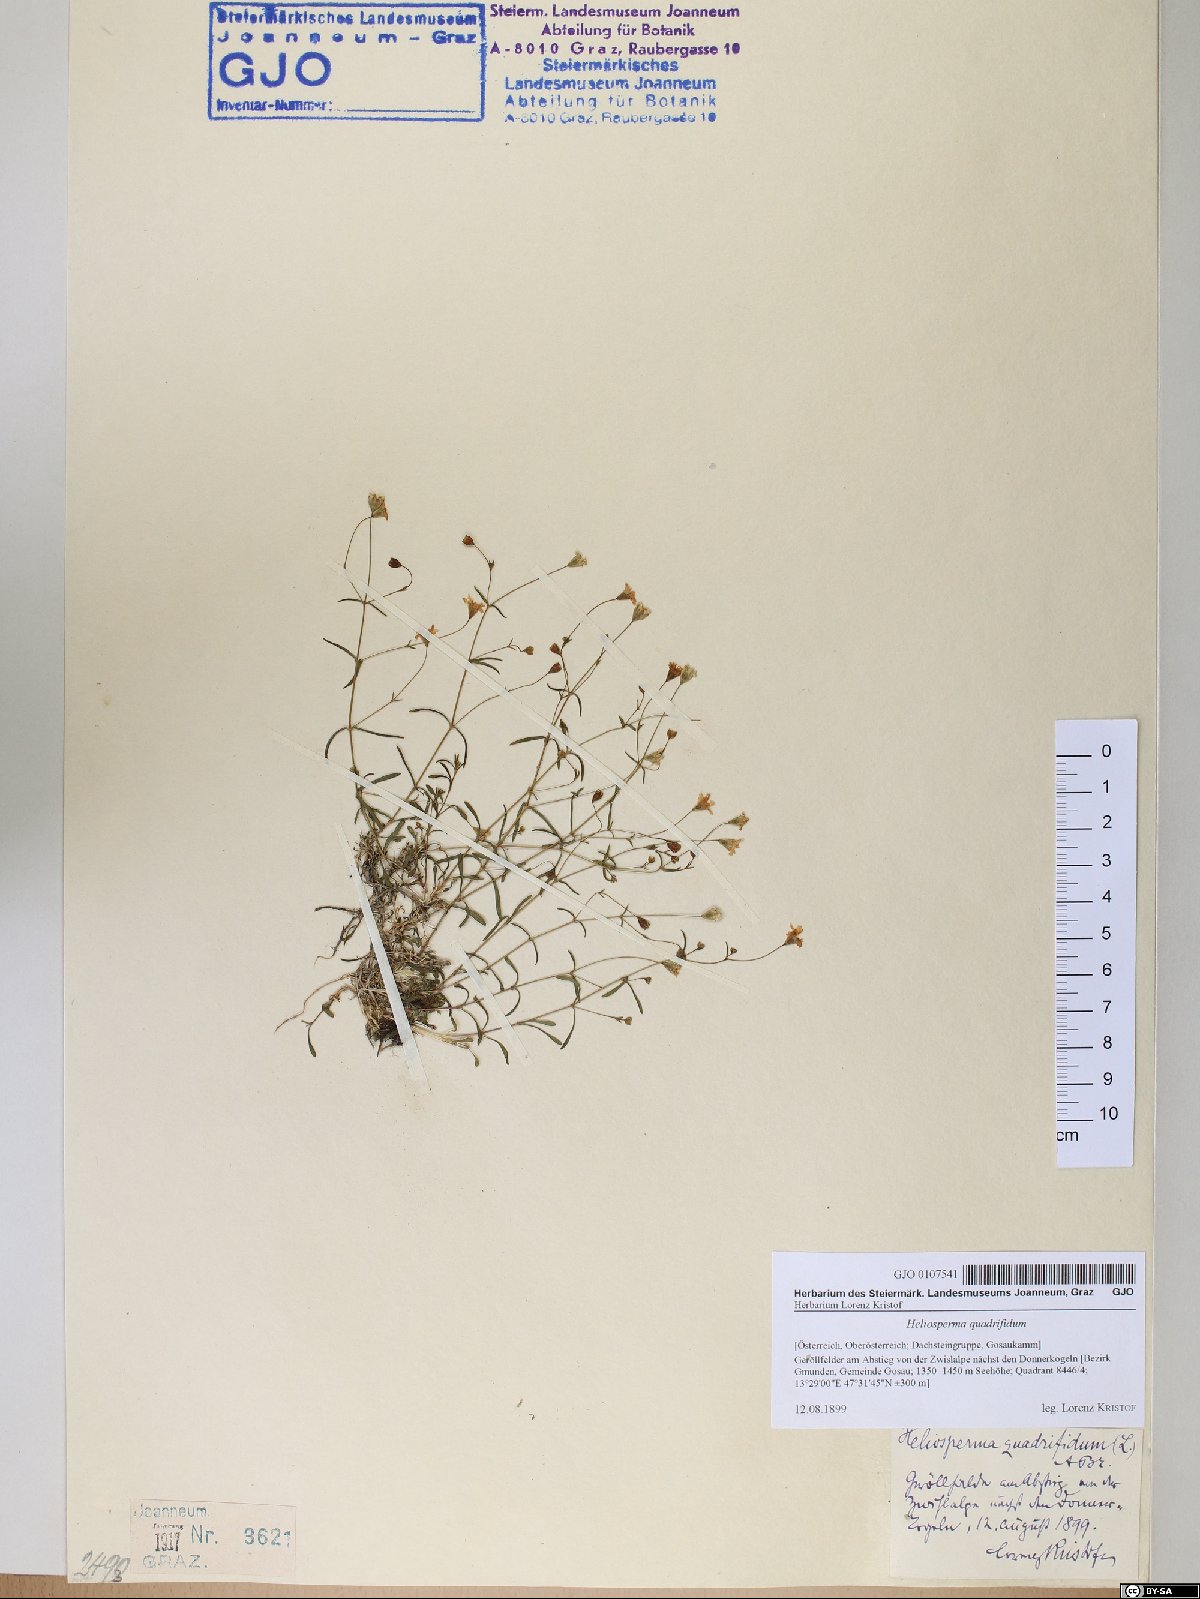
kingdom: Plantae
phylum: Tracheophyta
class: Magnoliopsida
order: Caryophyllales
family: Caryophyllaceae
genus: Heliosperma
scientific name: Heliosperma alpestre
